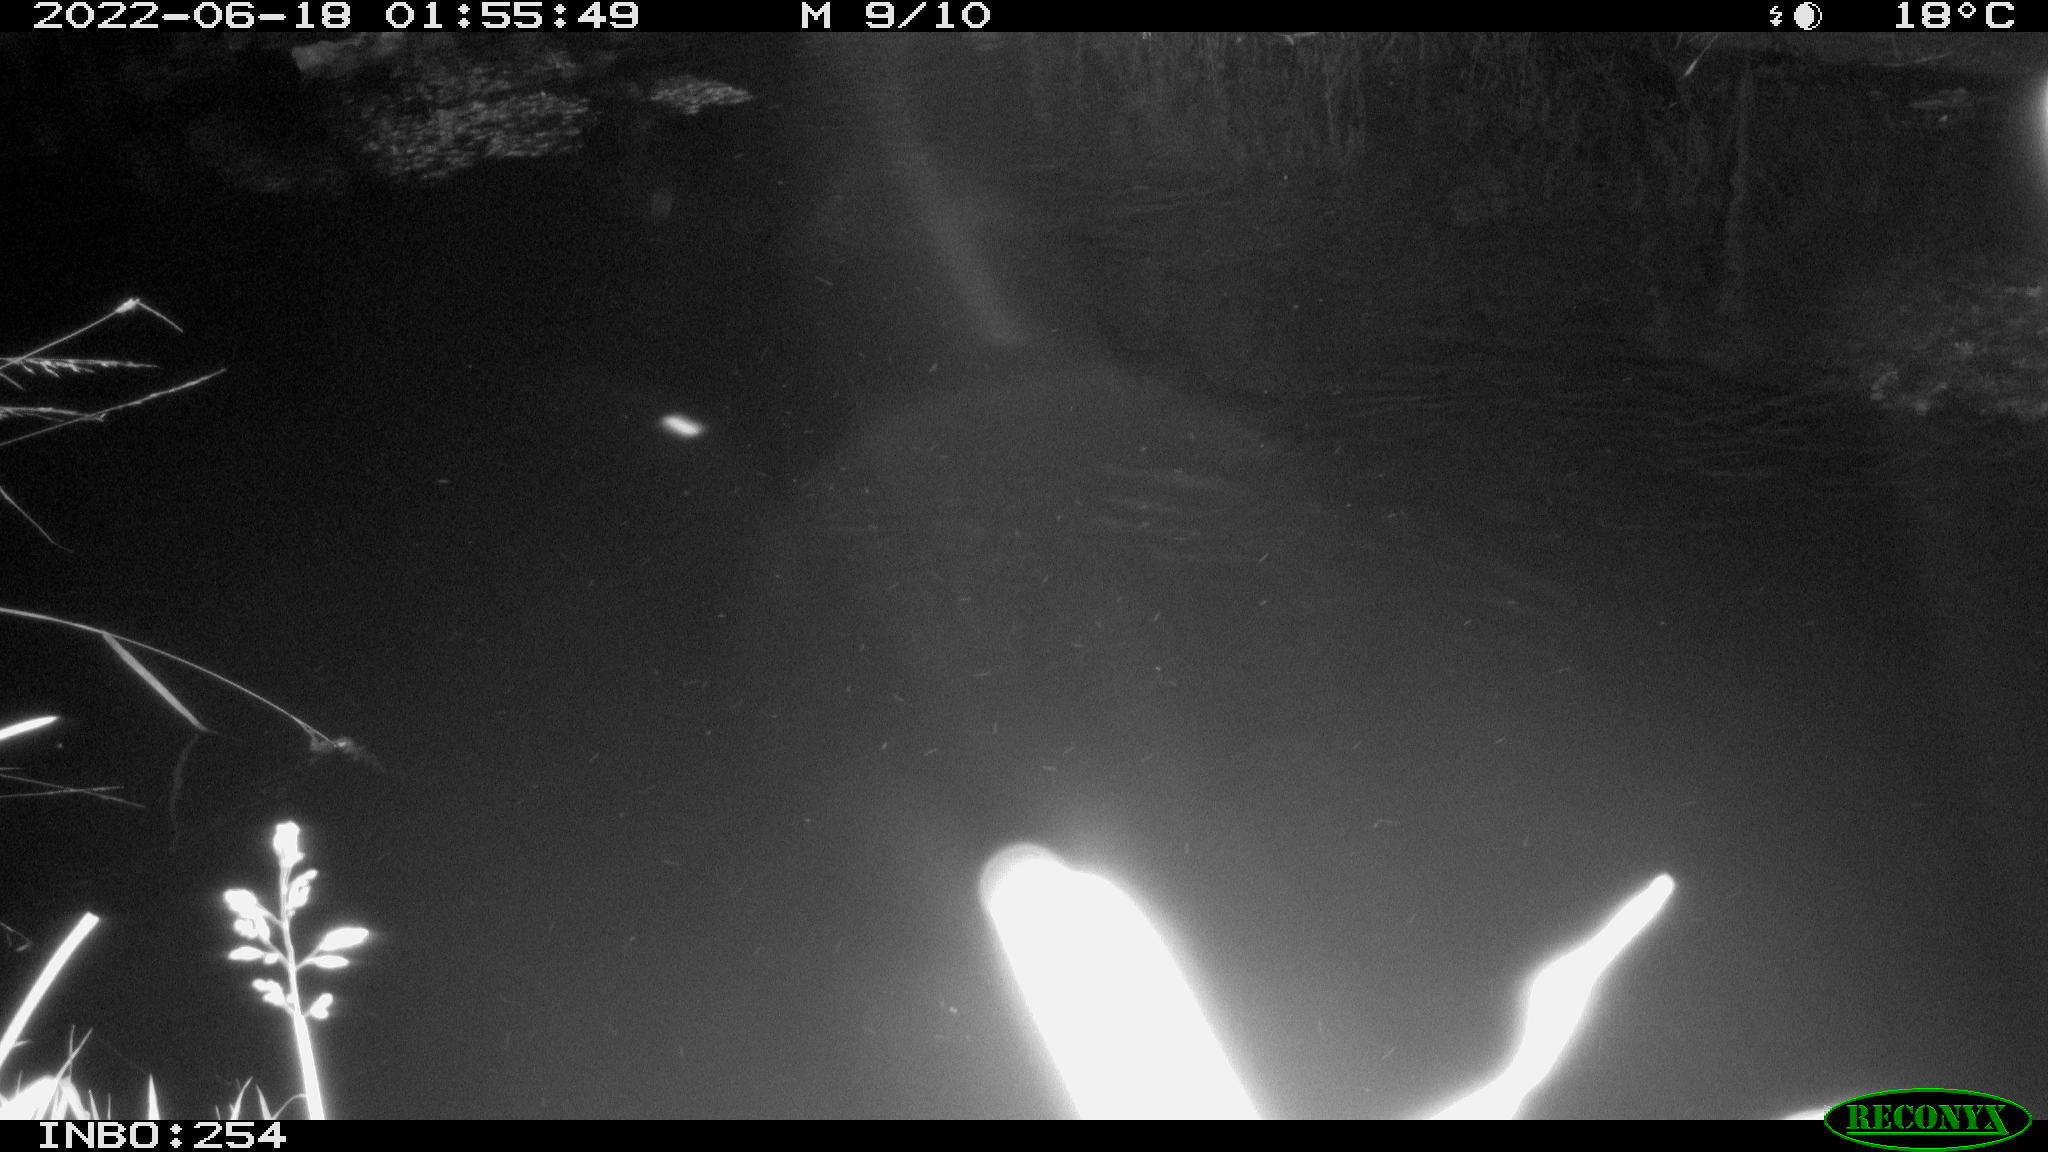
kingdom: Animalia
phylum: Chordata
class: Mammalia
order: Rodentia
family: Muridae
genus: Rattus
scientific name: Rattus norvegicus
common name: Brown rat
